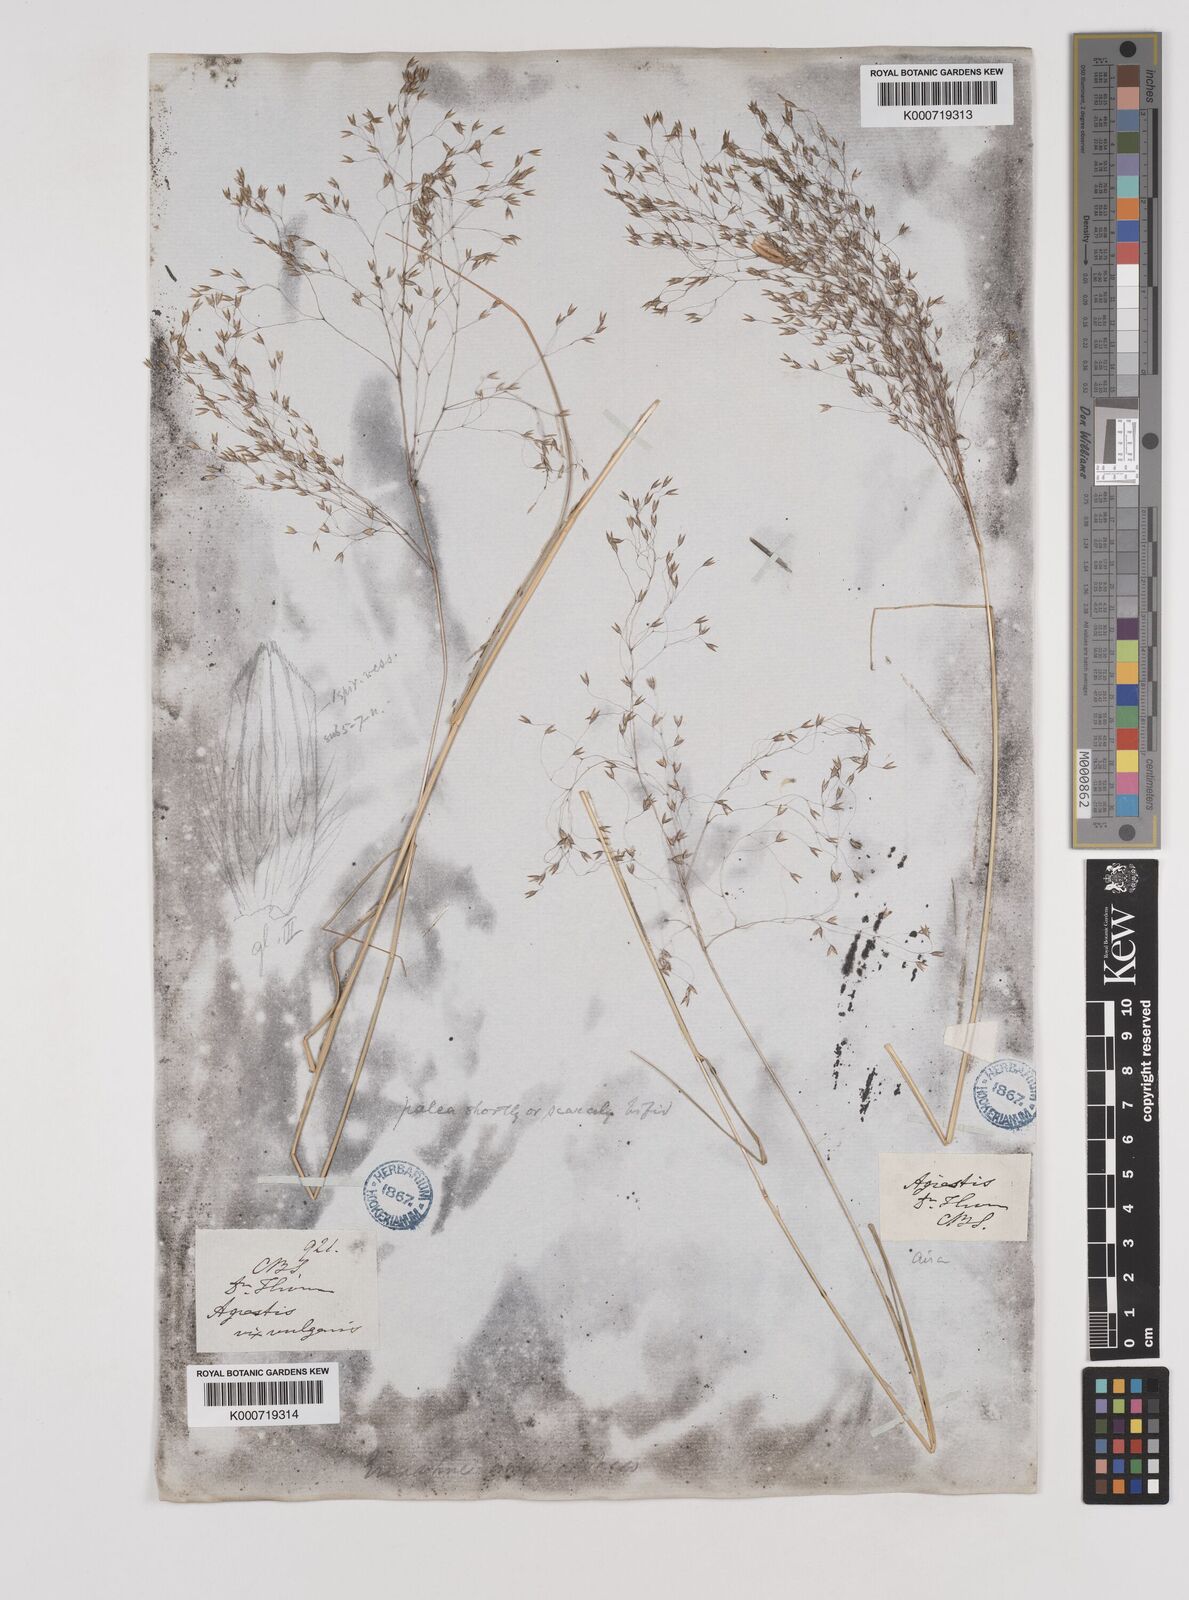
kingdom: Plantae
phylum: Tracheophyta
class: Liliopsida
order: Poales
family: Poaceae
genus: Pentameris
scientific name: Pentameris ampla
